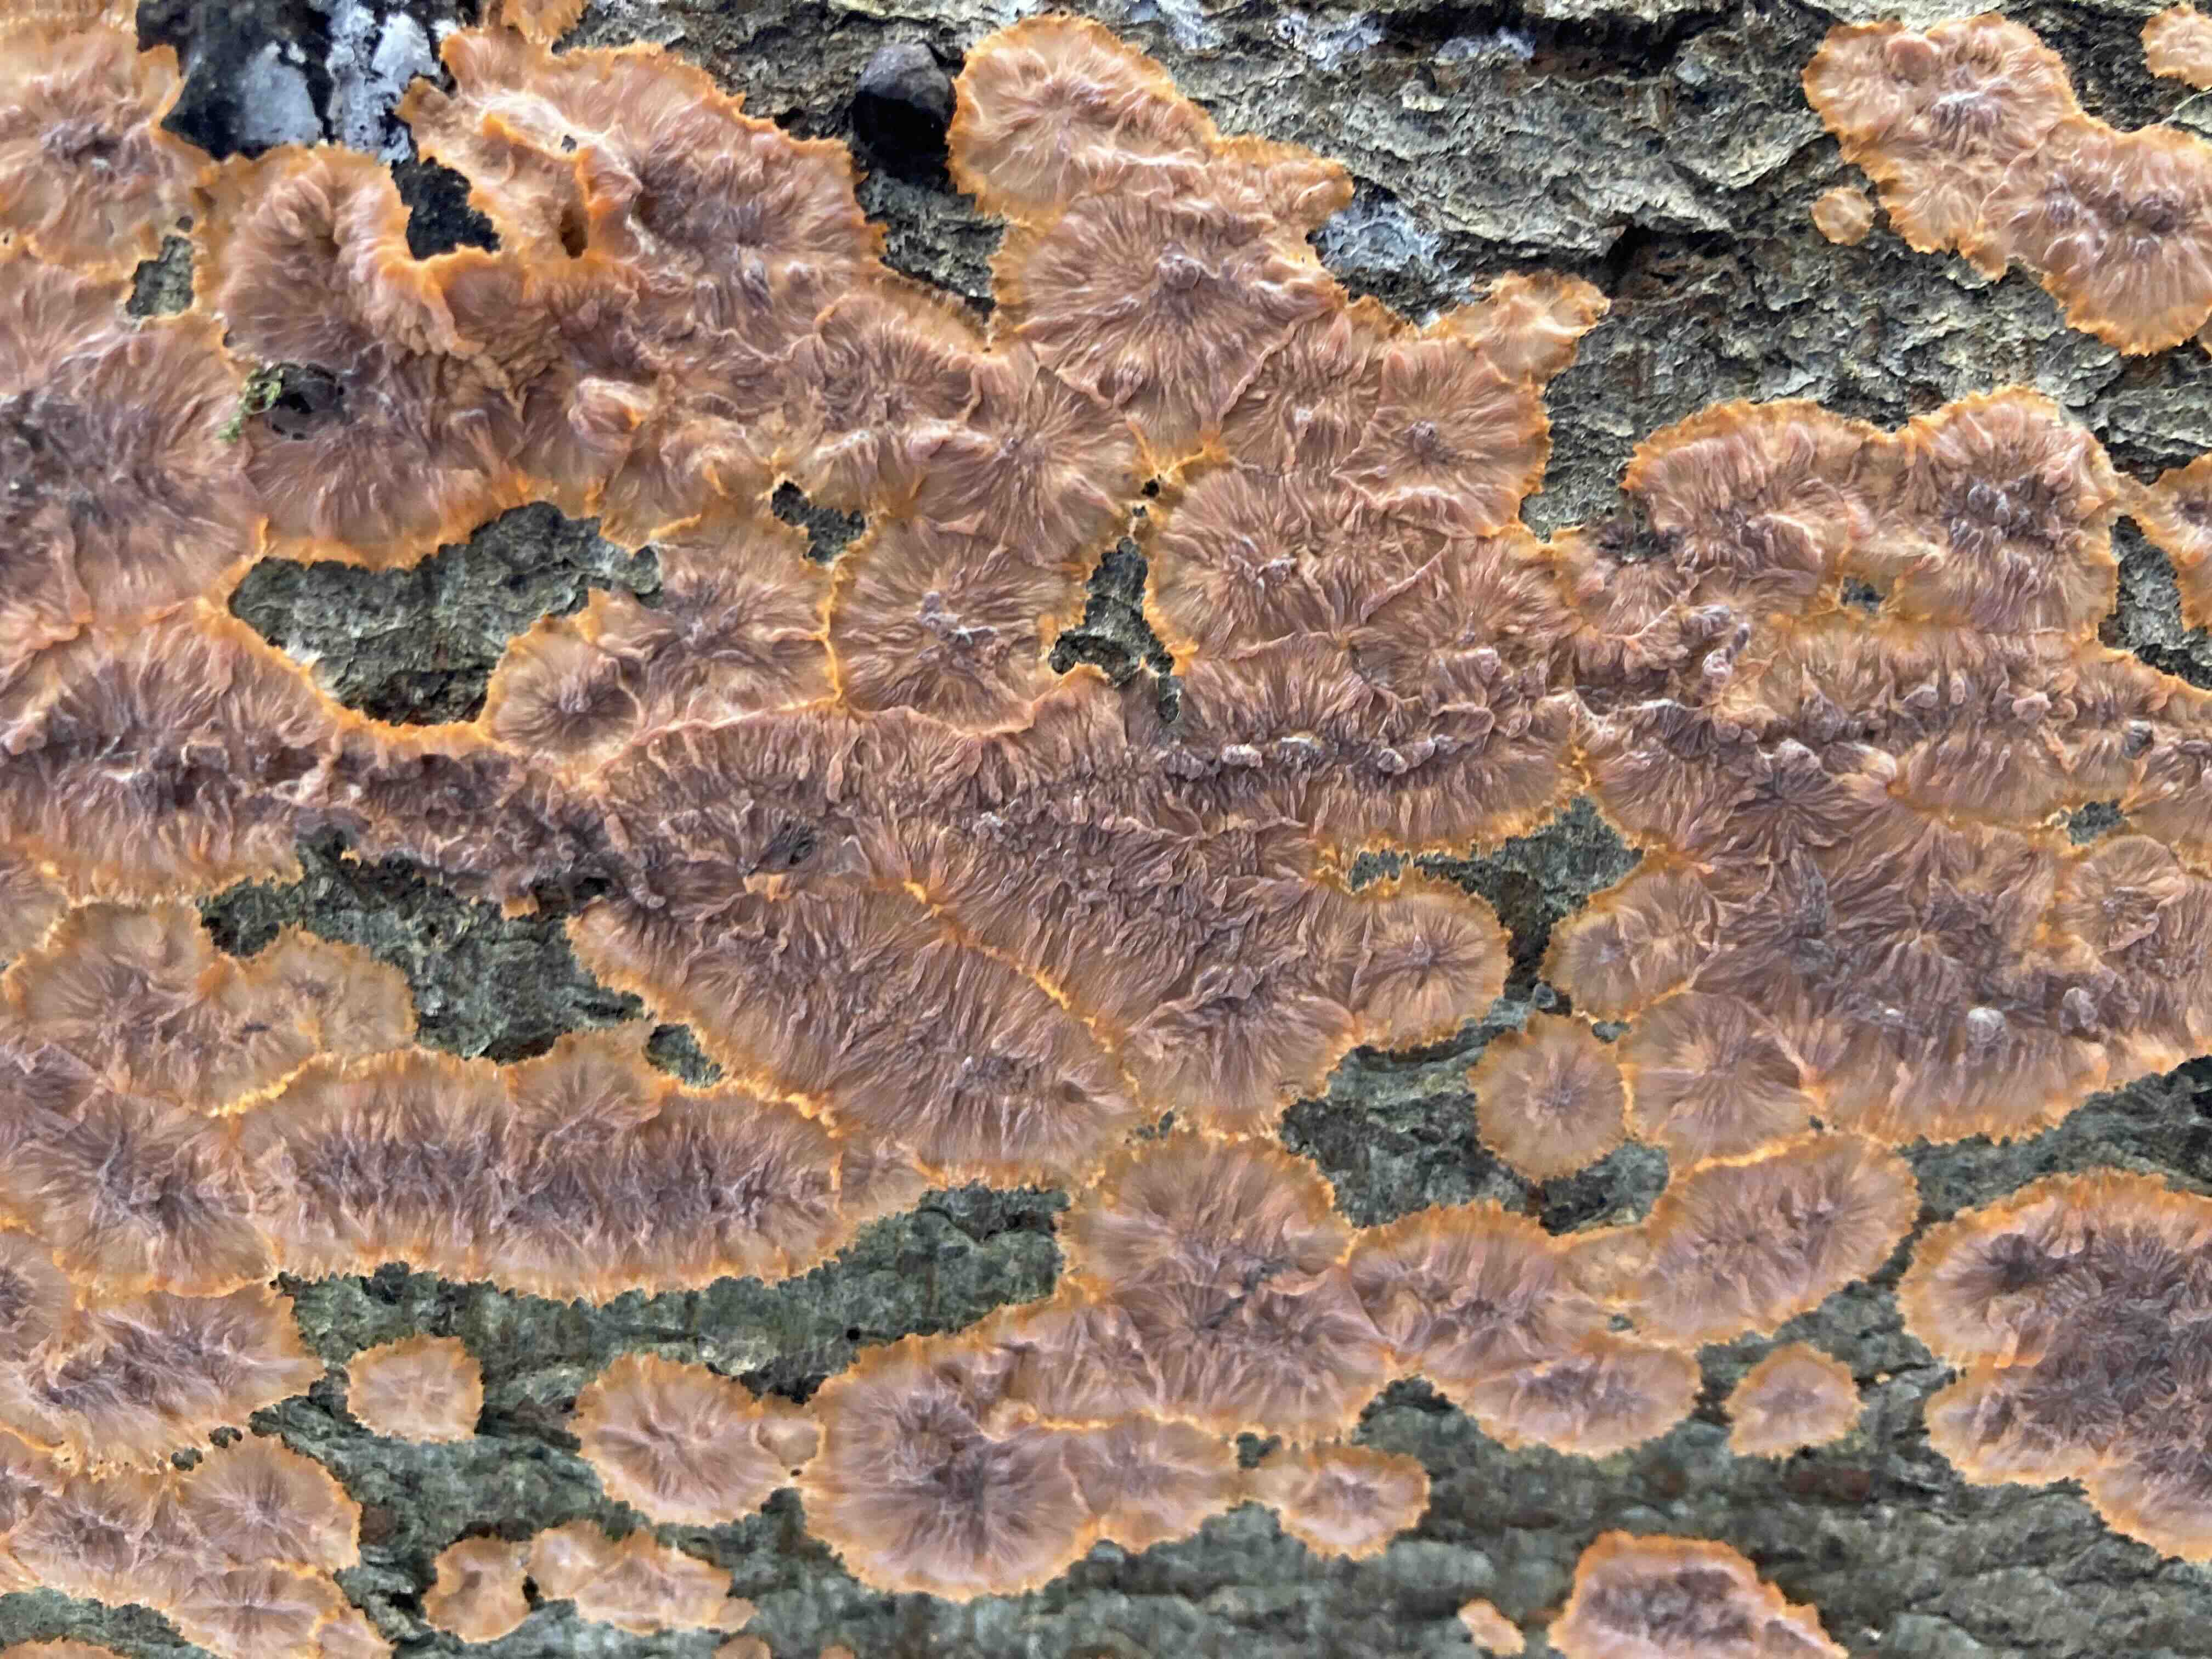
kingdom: Fungi
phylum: Basidiomycota
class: Agaricomycetes
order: Polyporales
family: Meruliaceae
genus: Phlebia
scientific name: Phlebia radiata
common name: stråle-åresvamp
